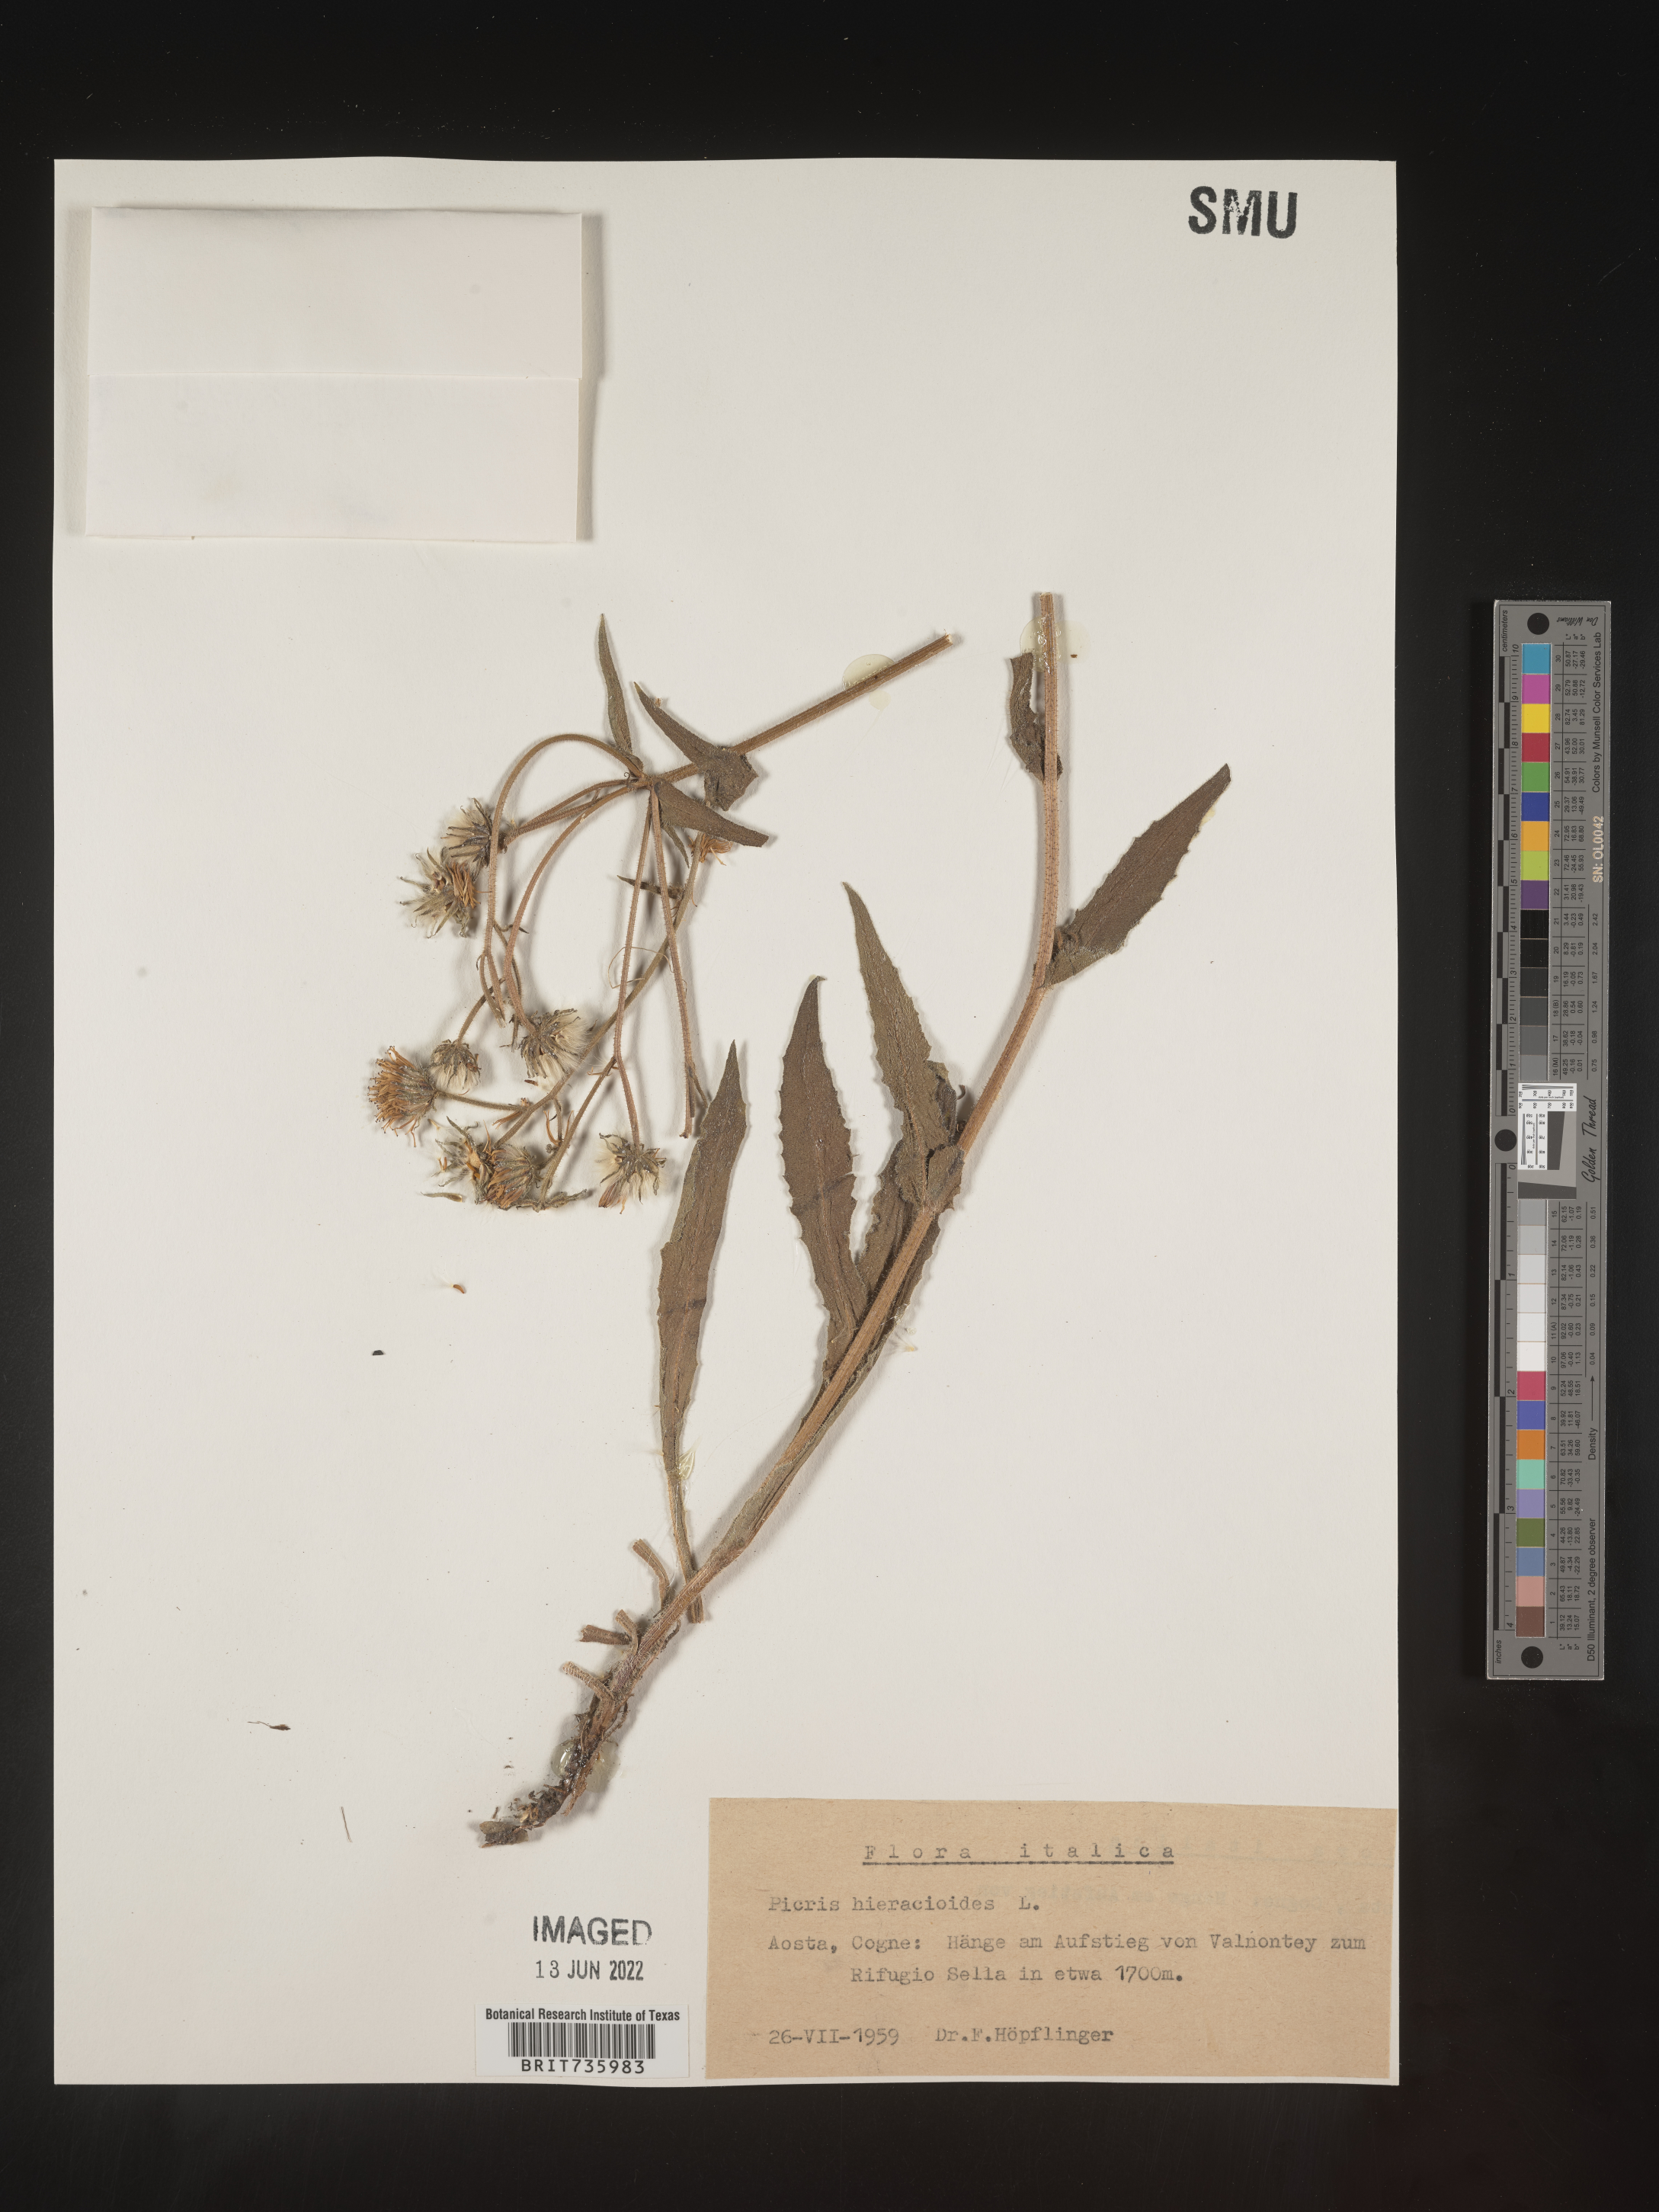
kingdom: Plantae
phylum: Tracheophyta
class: Magnoliopsida
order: Asterales
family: Asteraceae
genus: Picris
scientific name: Picris
